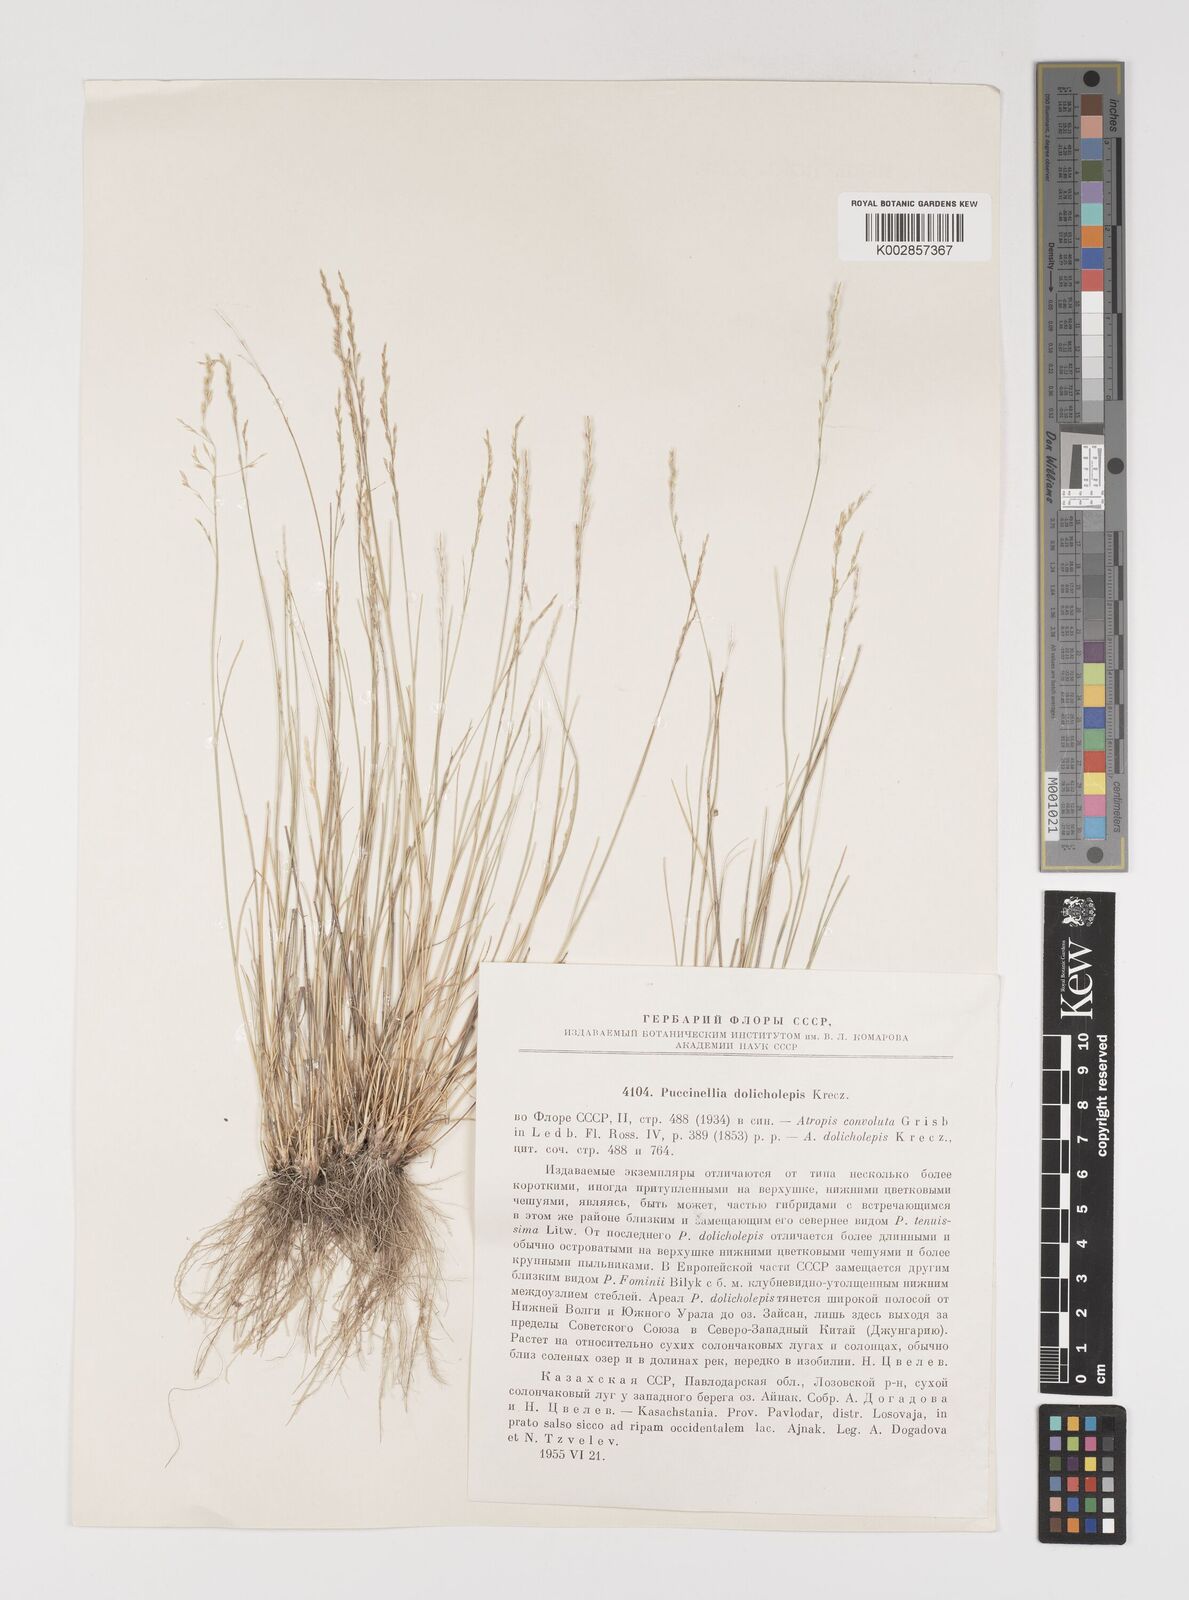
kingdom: Plantae
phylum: Tracheophyta
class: Liliopsida
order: Poales
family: Poaceae
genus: Puccinellia
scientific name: Puccinellia dolicholepis
